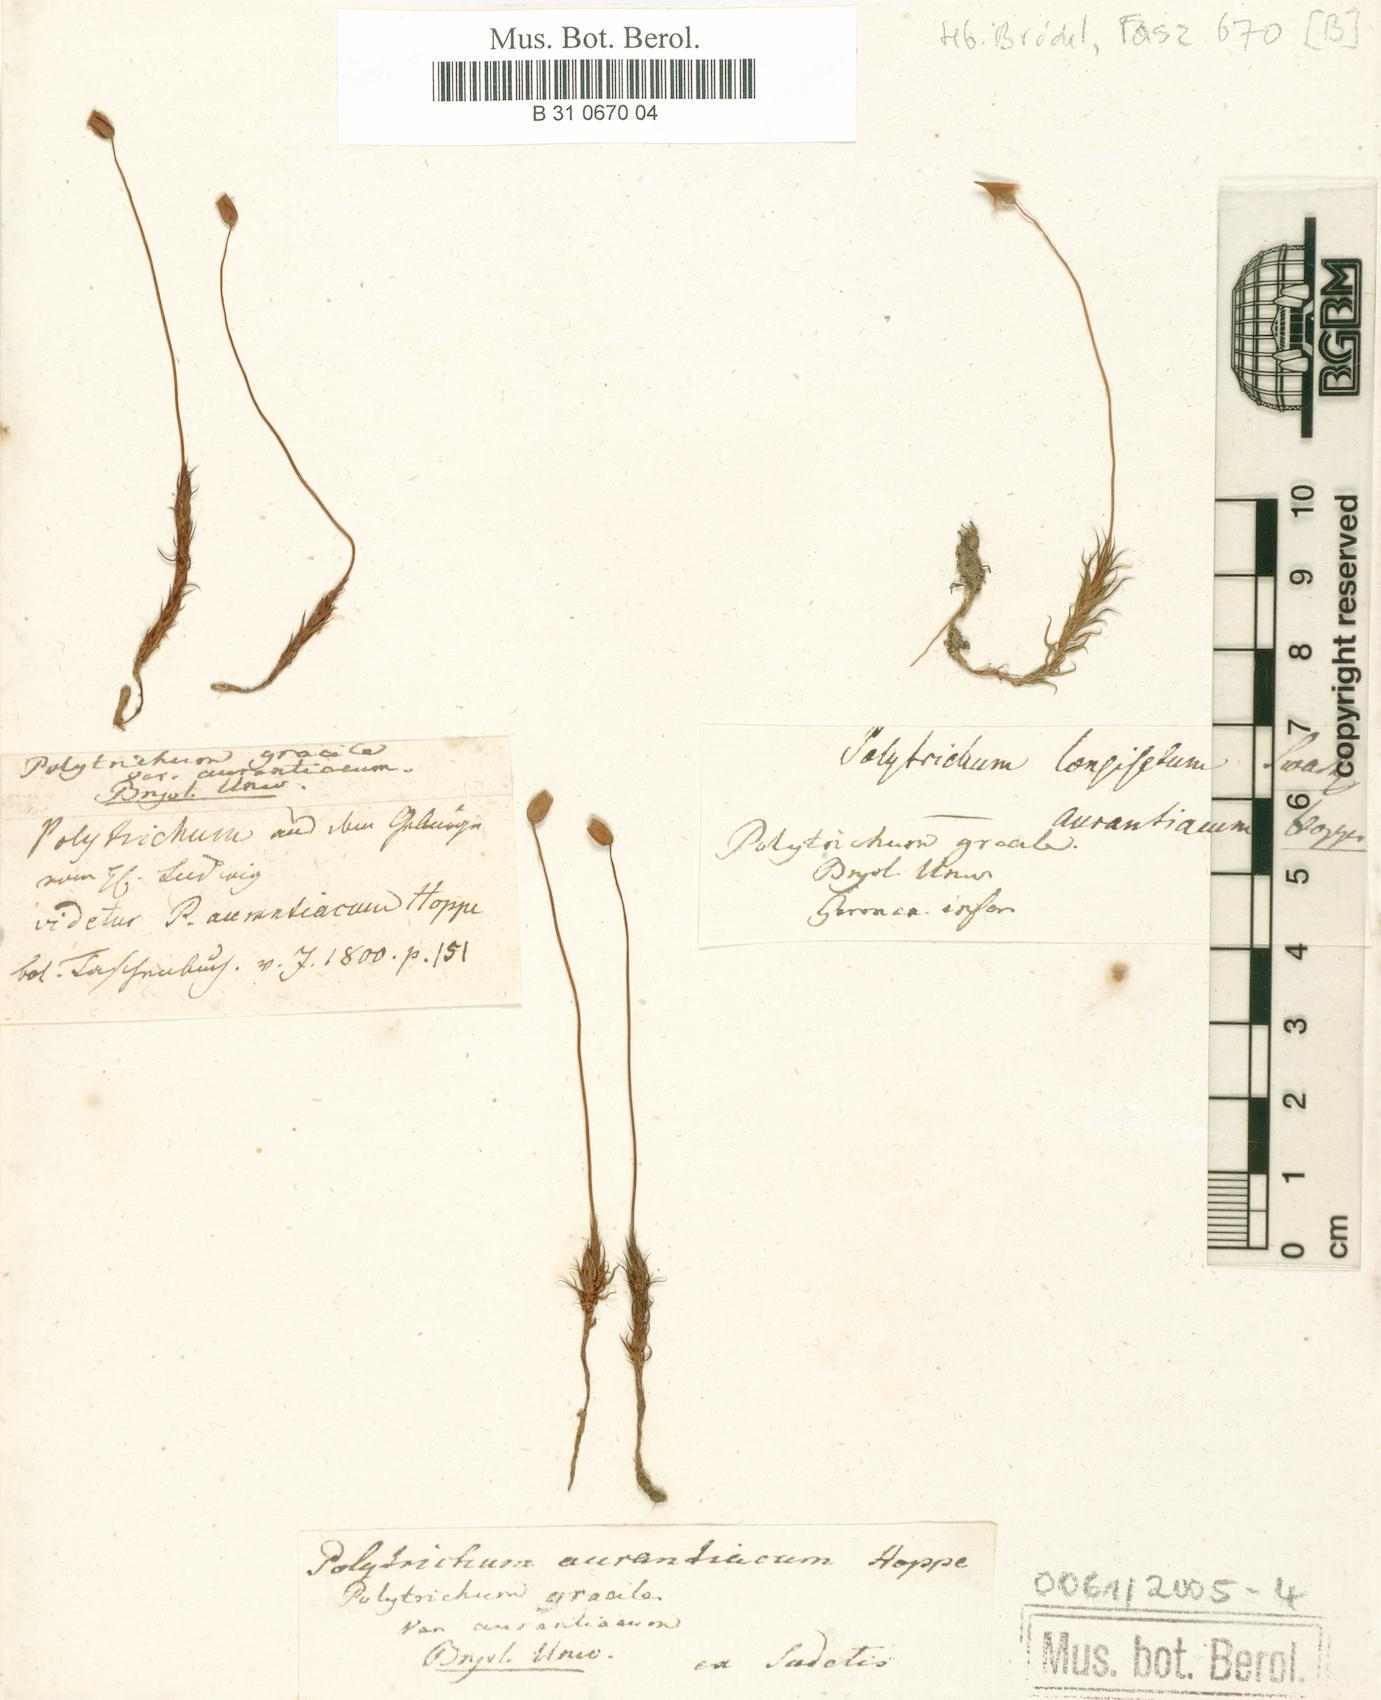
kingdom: Plantae
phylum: Bryophyta
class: Polytrichopsida
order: Polytrichales
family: Polytrichaceae
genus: Polytrichum
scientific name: Polytrichum longisetum
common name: Long-stalked haircap moss
